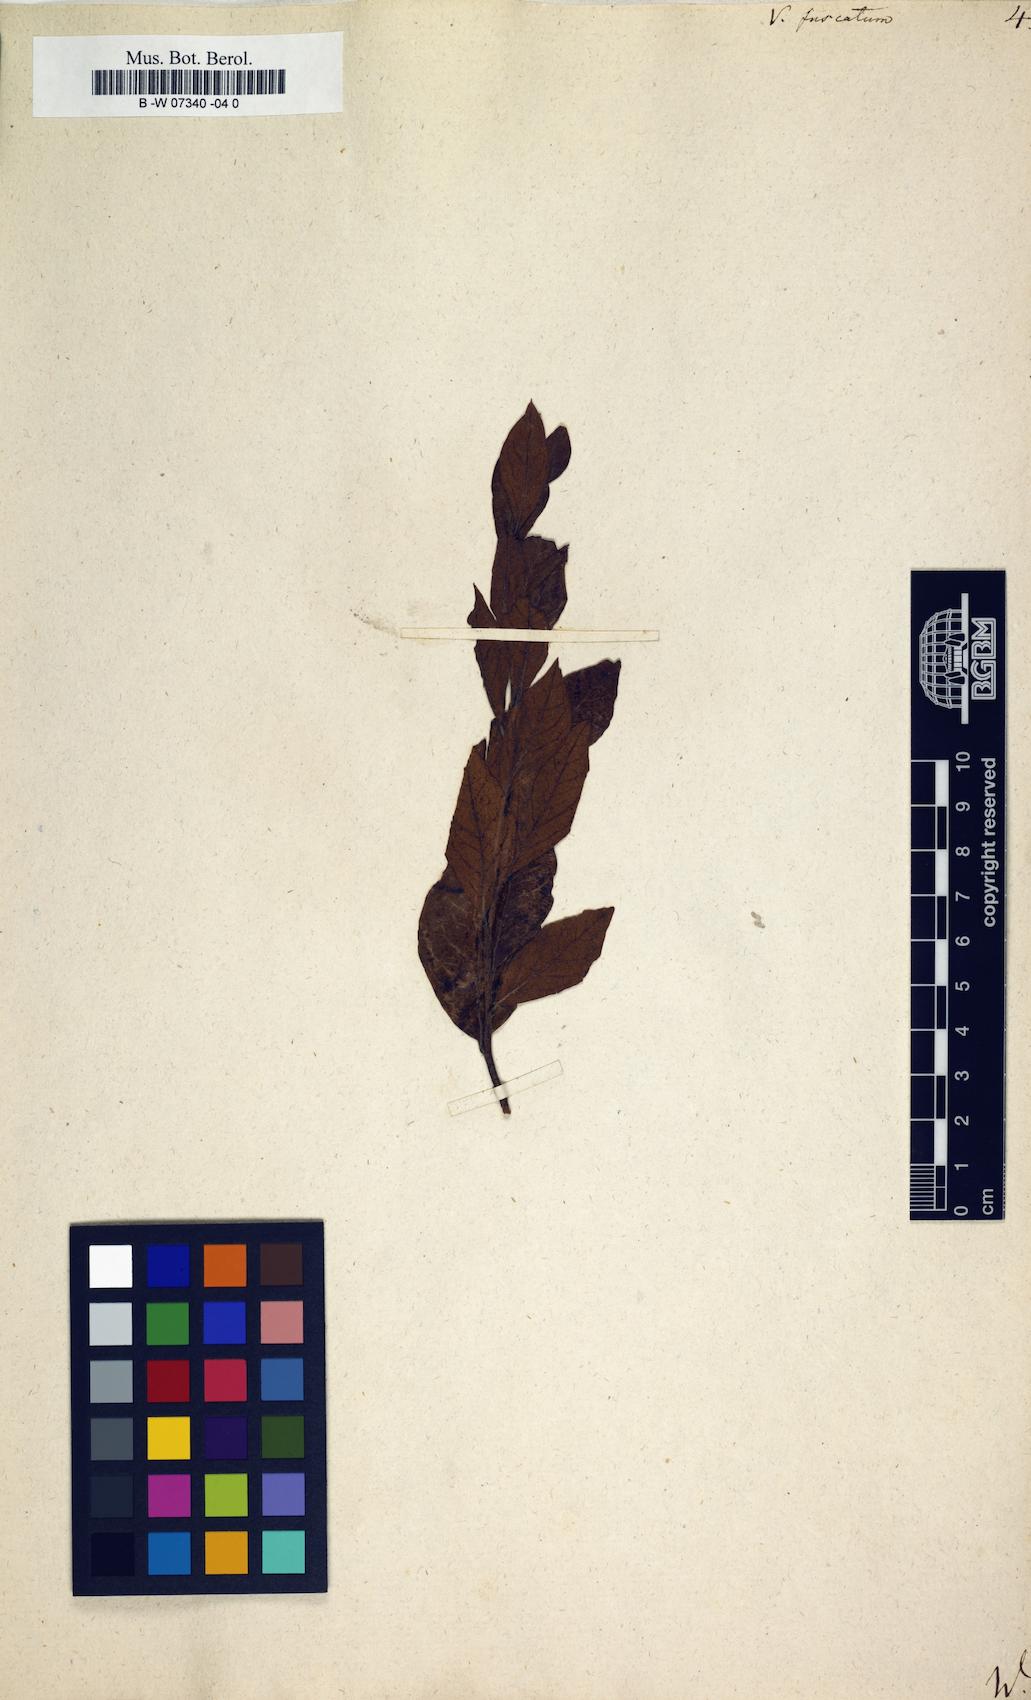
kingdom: Plantae
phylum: Tracheophyta
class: Magnoliopsida
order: Ericales
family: Ericaceae
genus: Vaccinium
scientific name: Vaccinium corymbosum
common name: Blueberry
